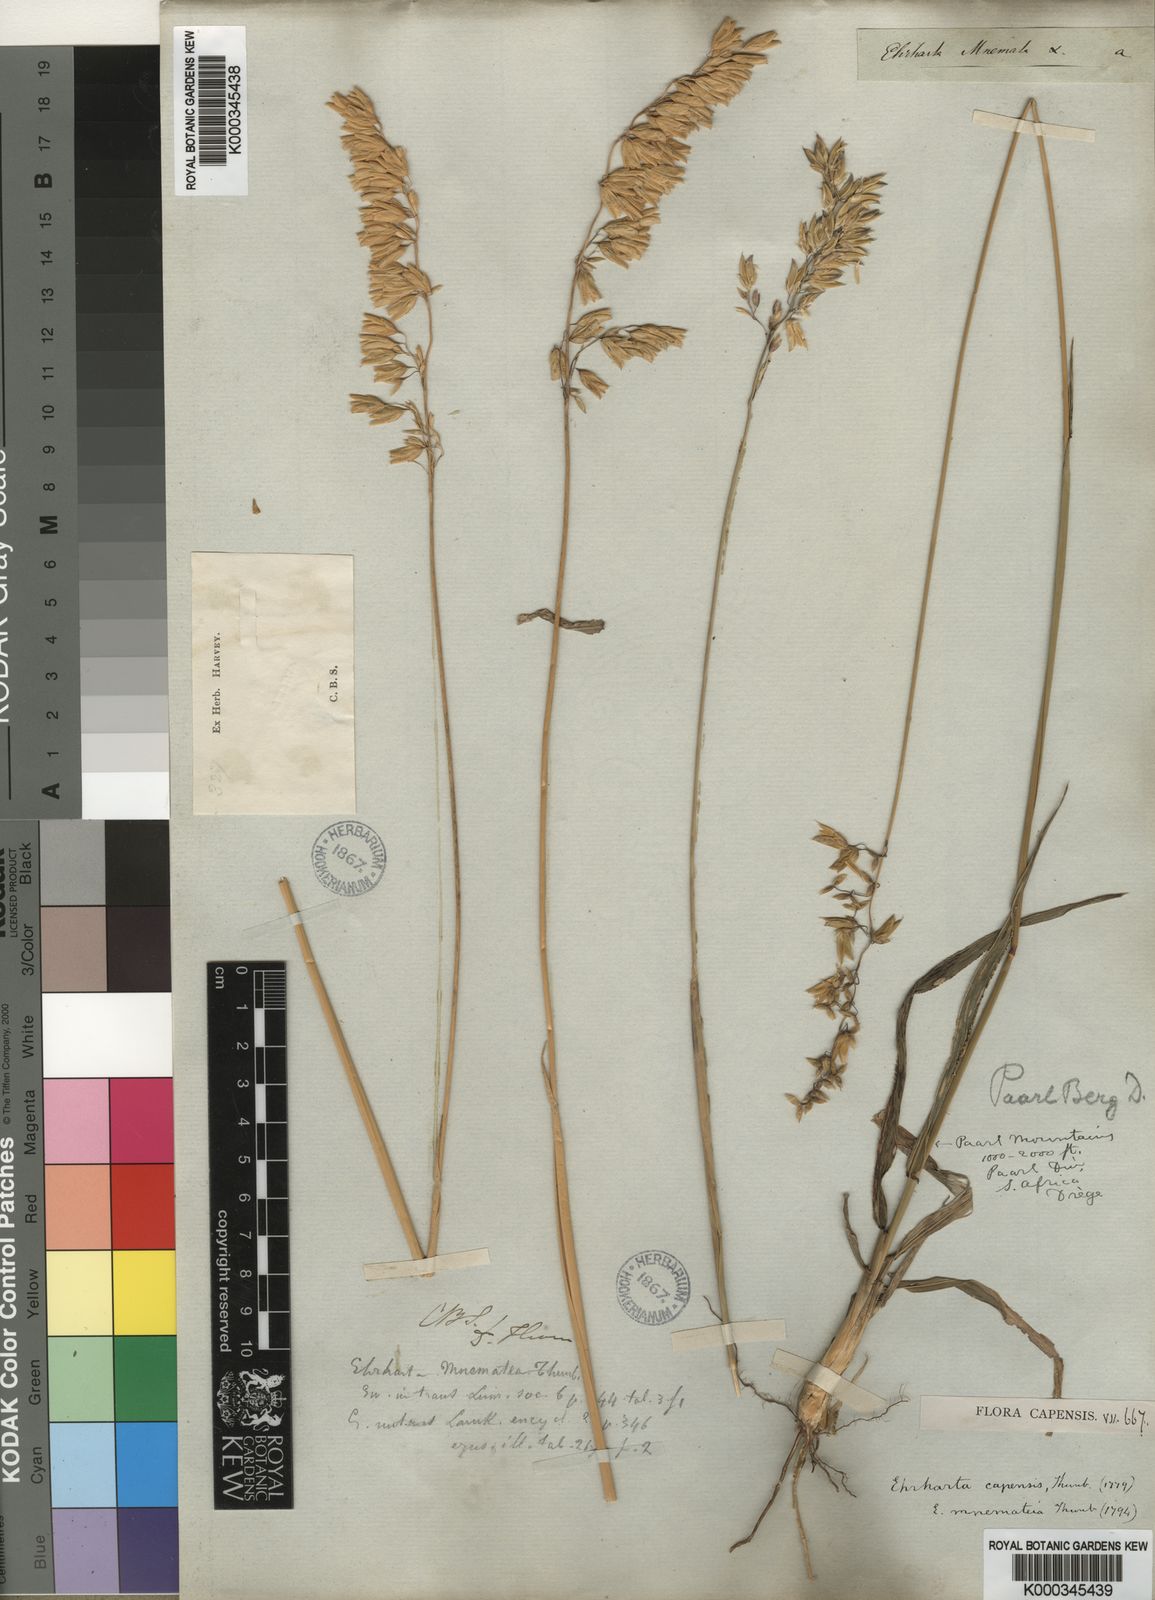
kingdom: Plantae
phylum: Tracheophyta
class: Liliopsida
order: Poales
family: Poaceae
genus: Ehrharta
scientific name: Ehrharta capensis
